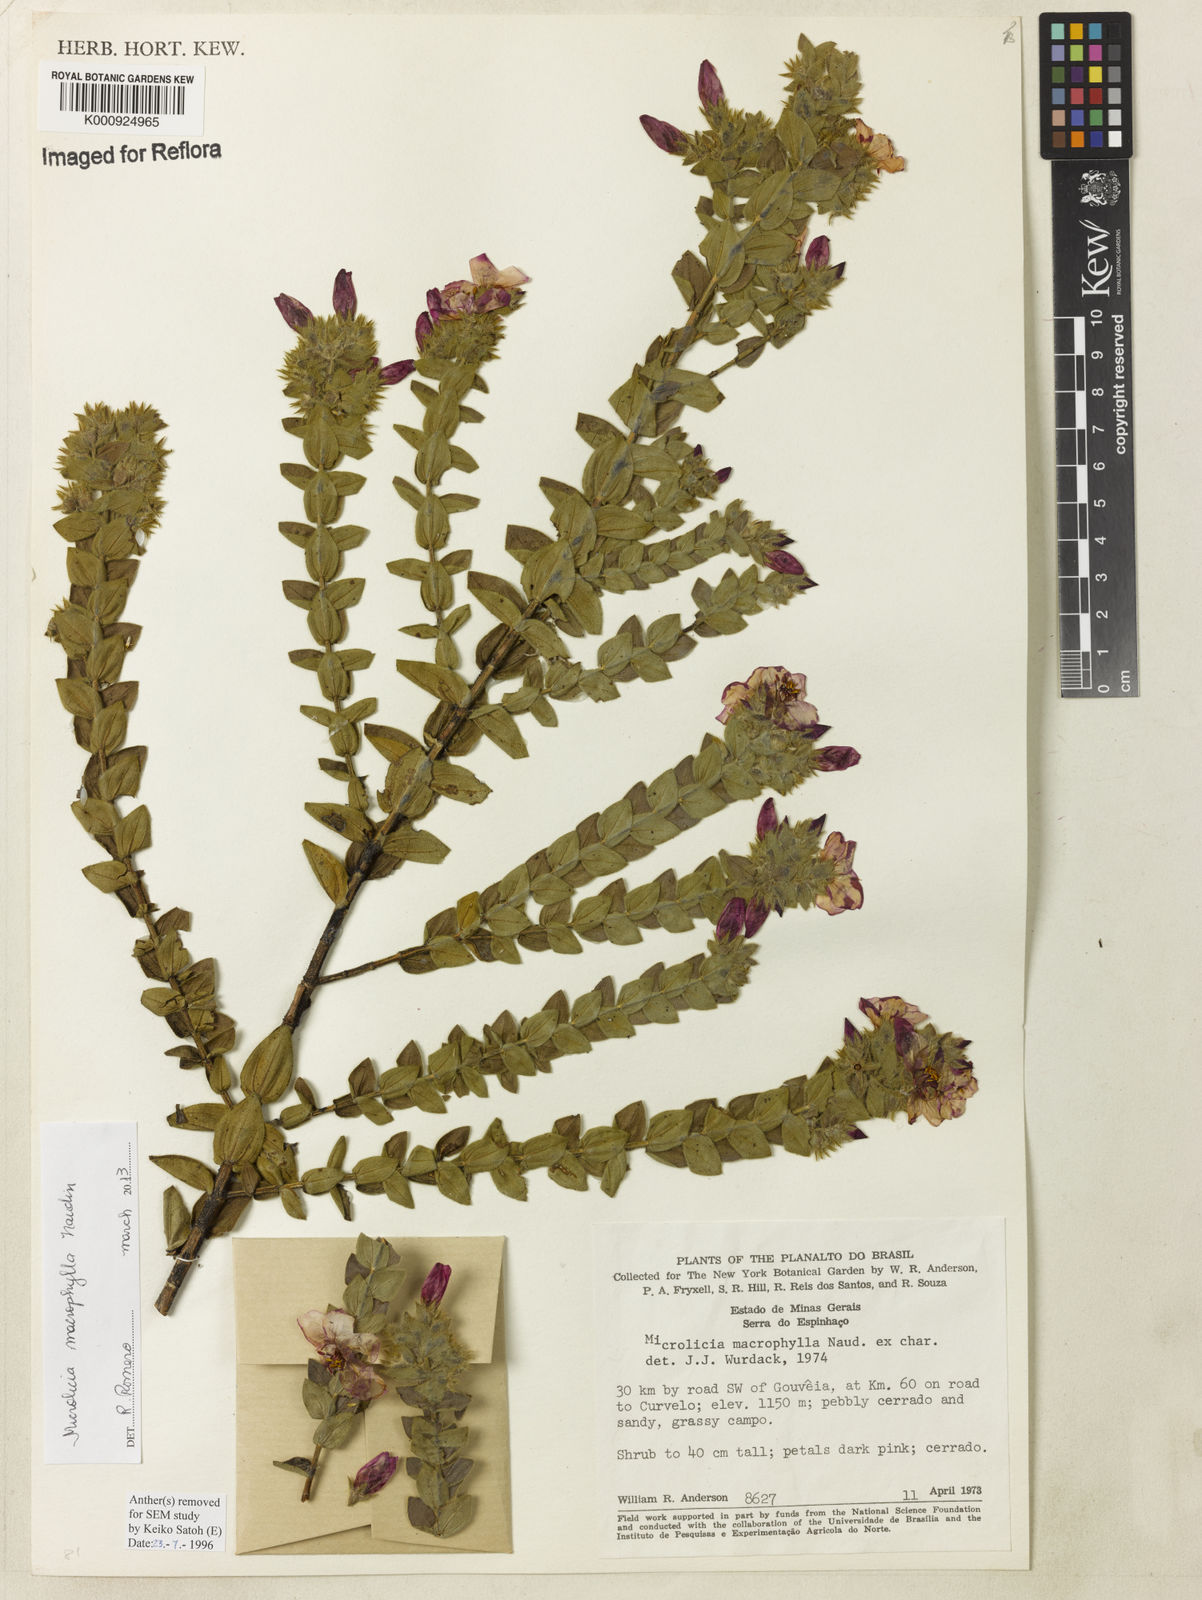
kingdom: Plantae
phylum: Tracheophyta
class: Magnoliopsida
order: Myrtales
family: Melastomataceae
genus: Microlicia
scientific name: Microlicia macrophylla
